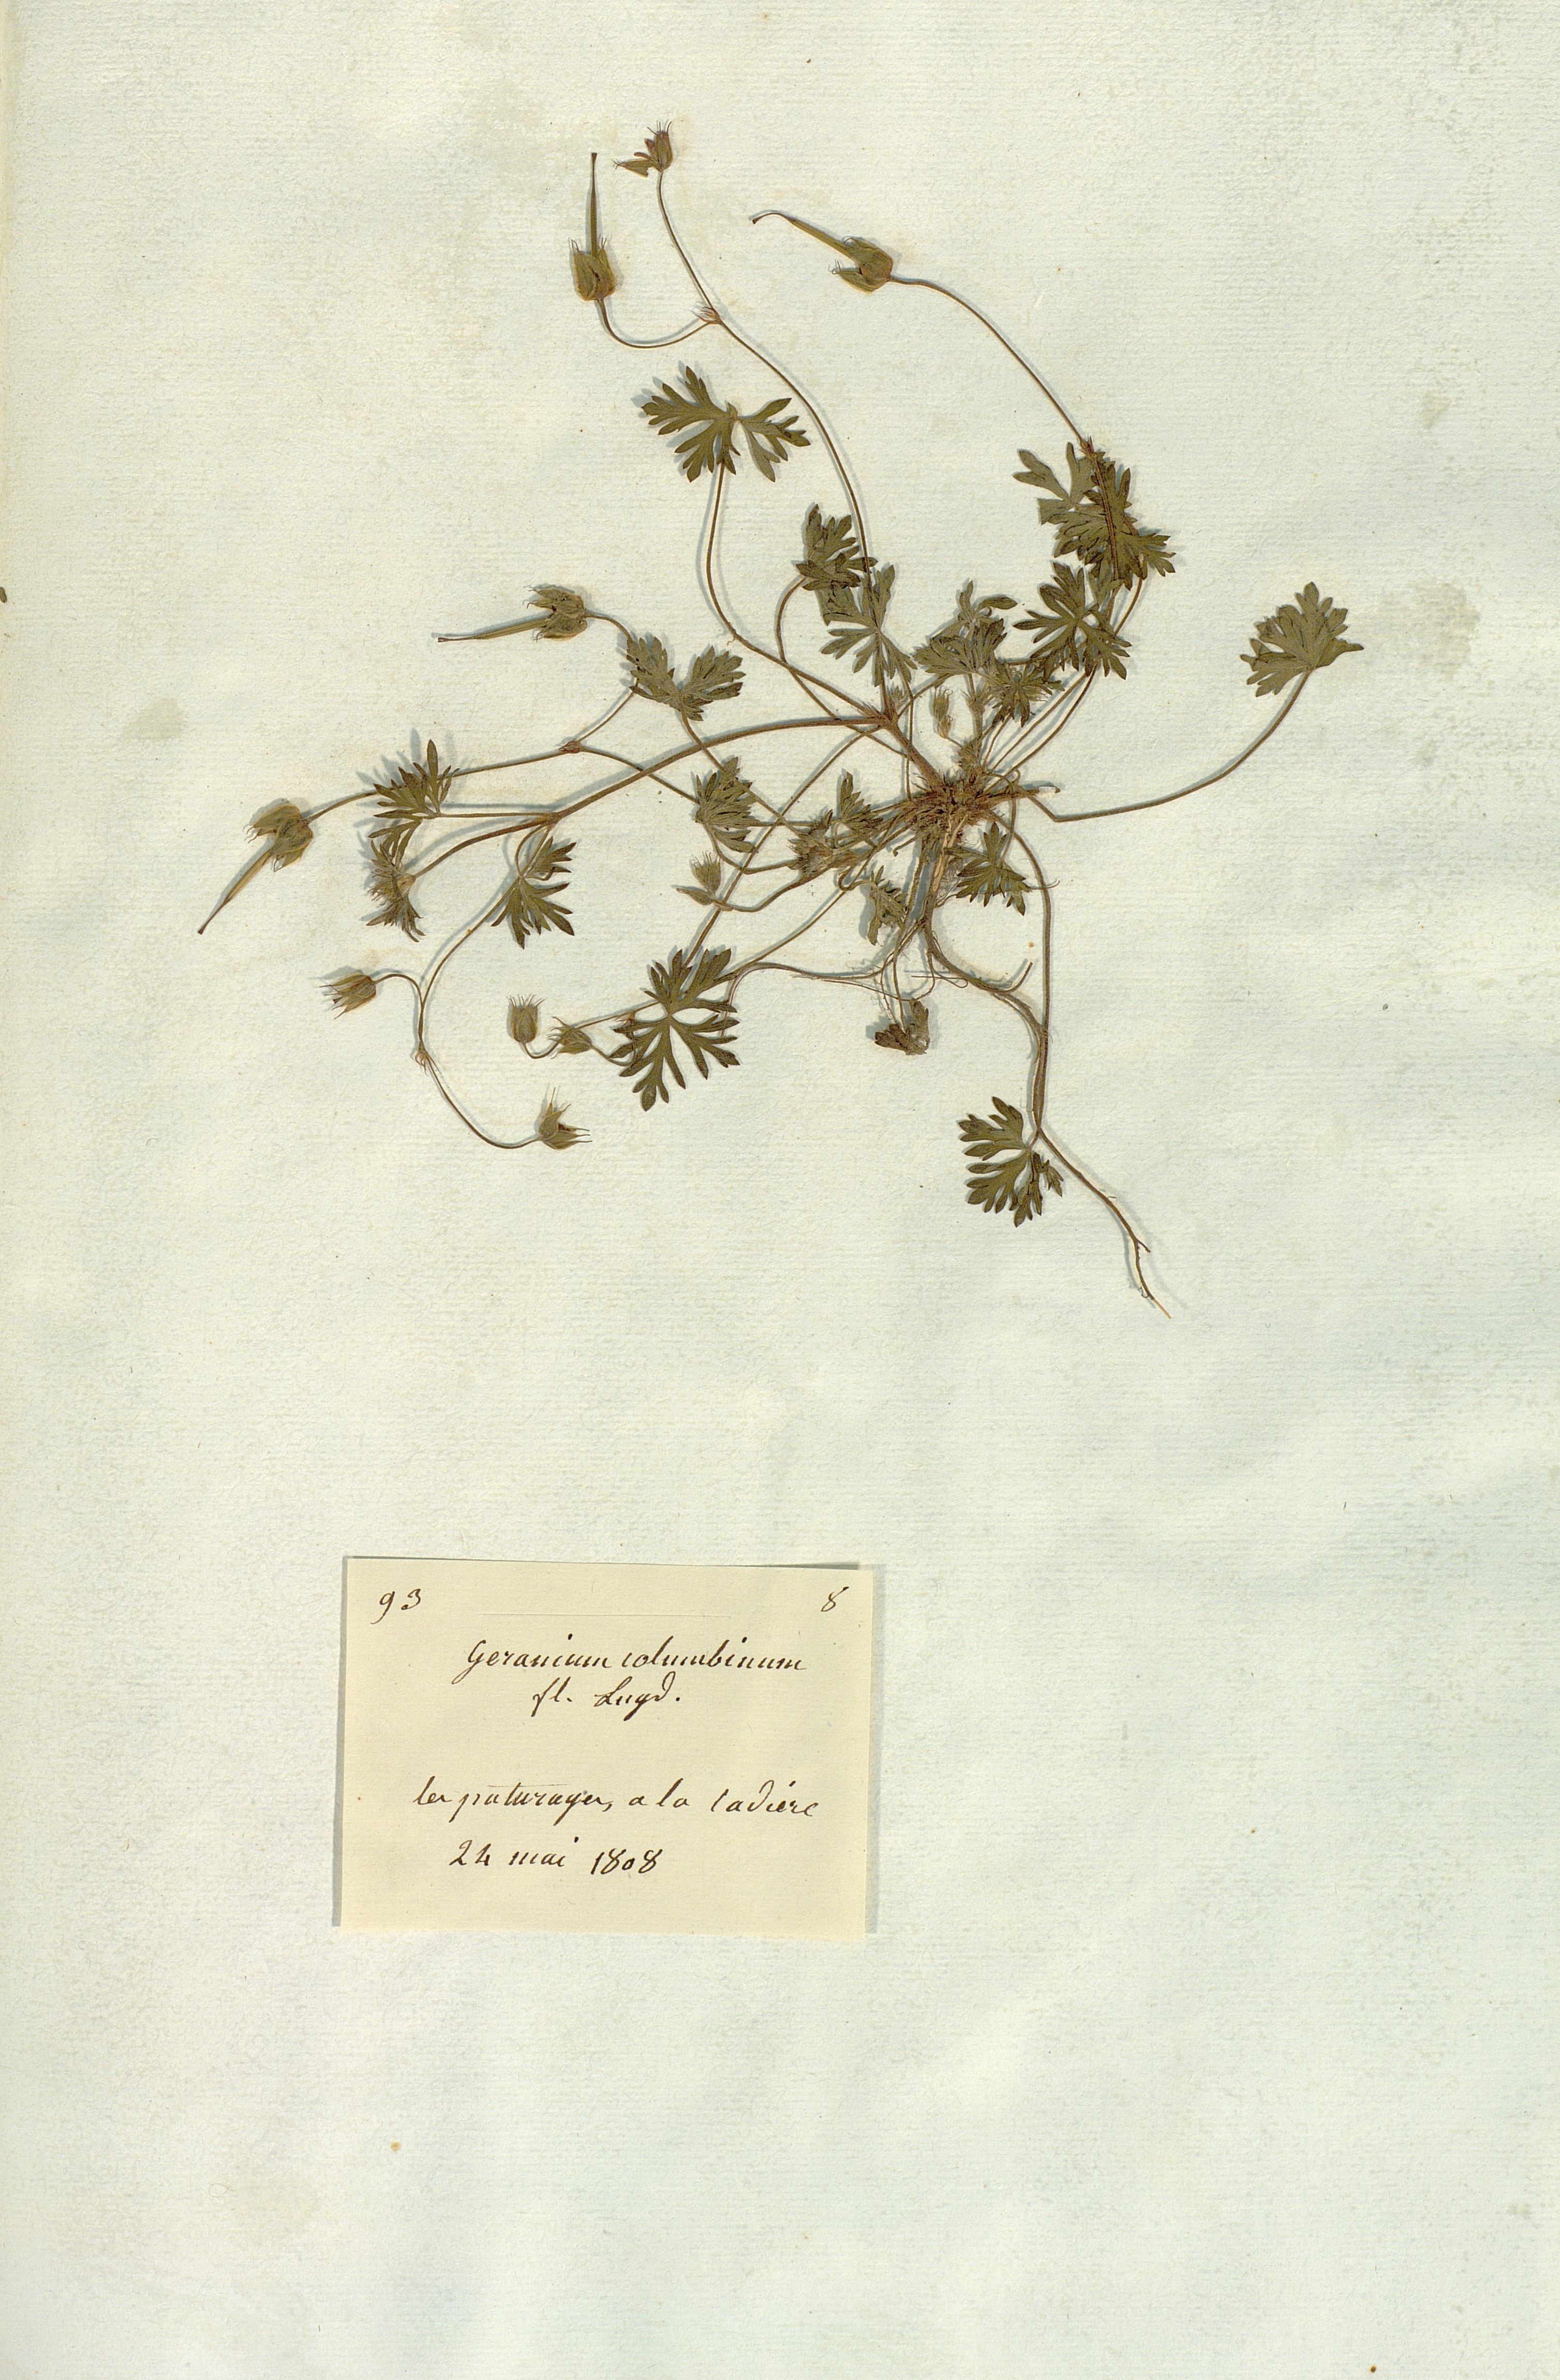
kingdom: Plantae
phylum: Tracheophyta
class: Magnoliopsida
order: Geraniales
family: Geraniaceae
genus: Geranium
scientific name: Geranium columbinum
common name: Long-stalked crane's-bill
